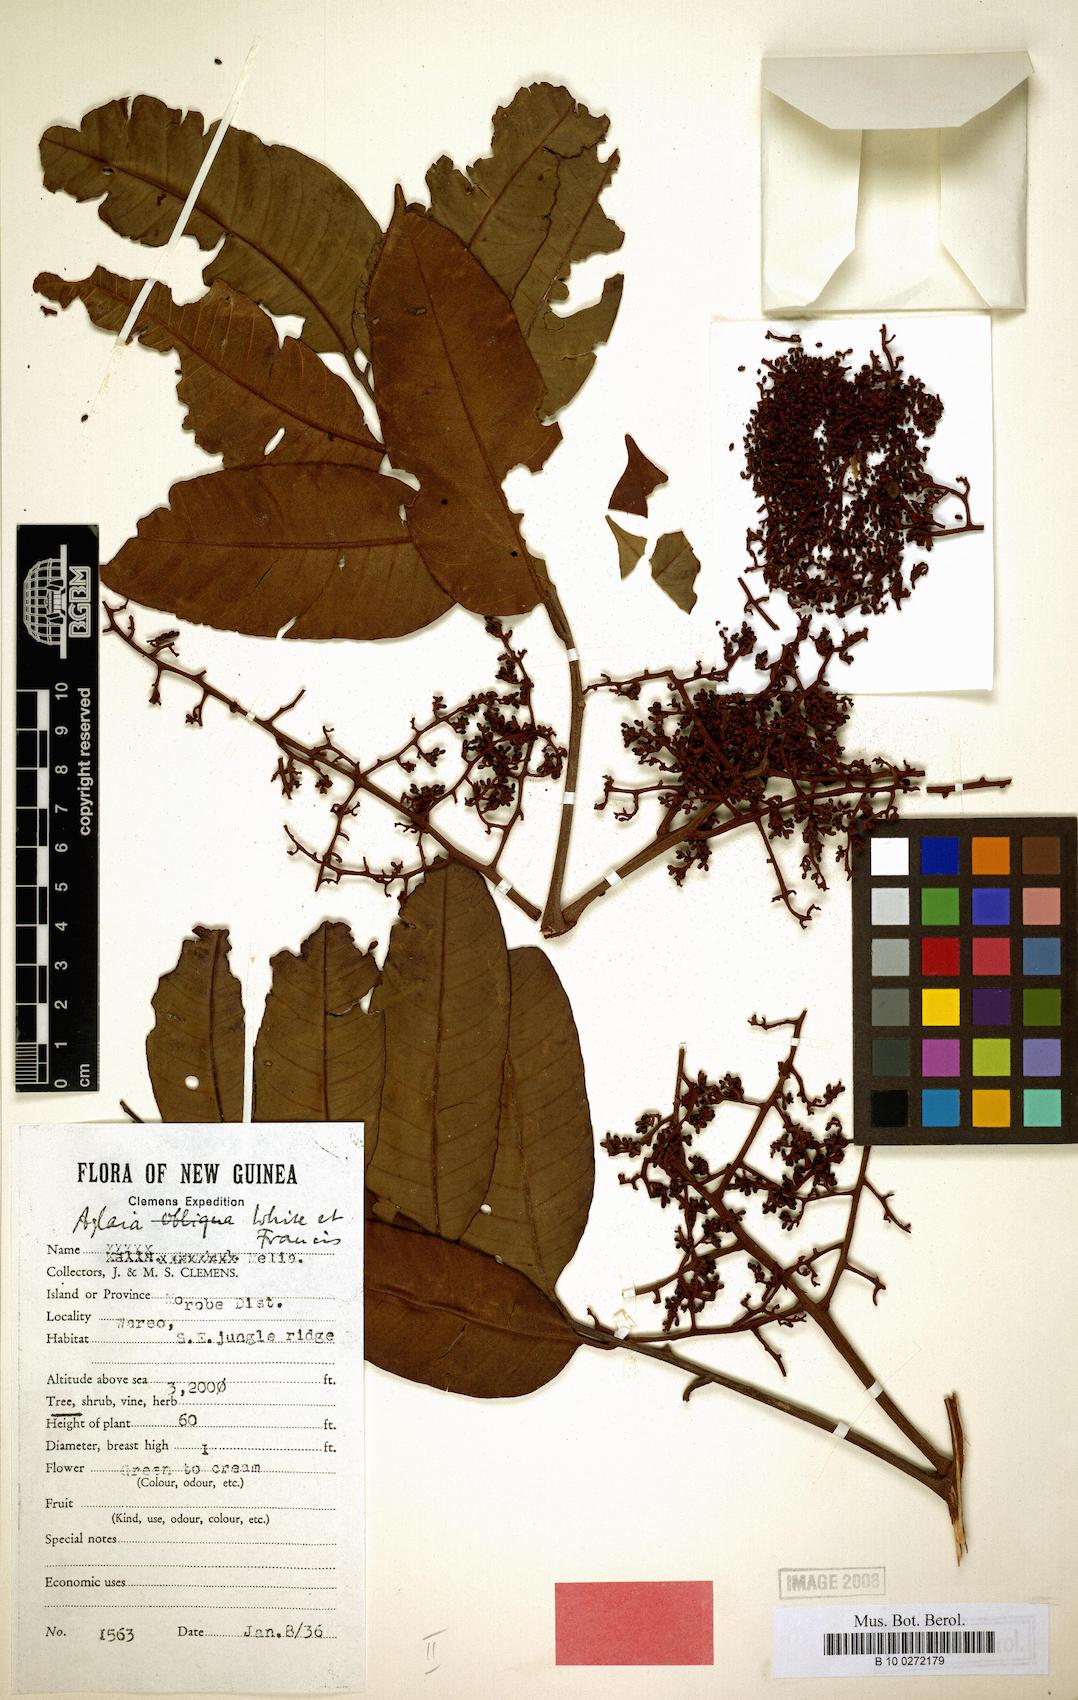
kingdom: Plantae
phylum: Tracheophyta
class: Magnoliopsida
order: Sapindales
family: Meliaceae
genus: Aglaia
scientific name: Aglaia silvestris
